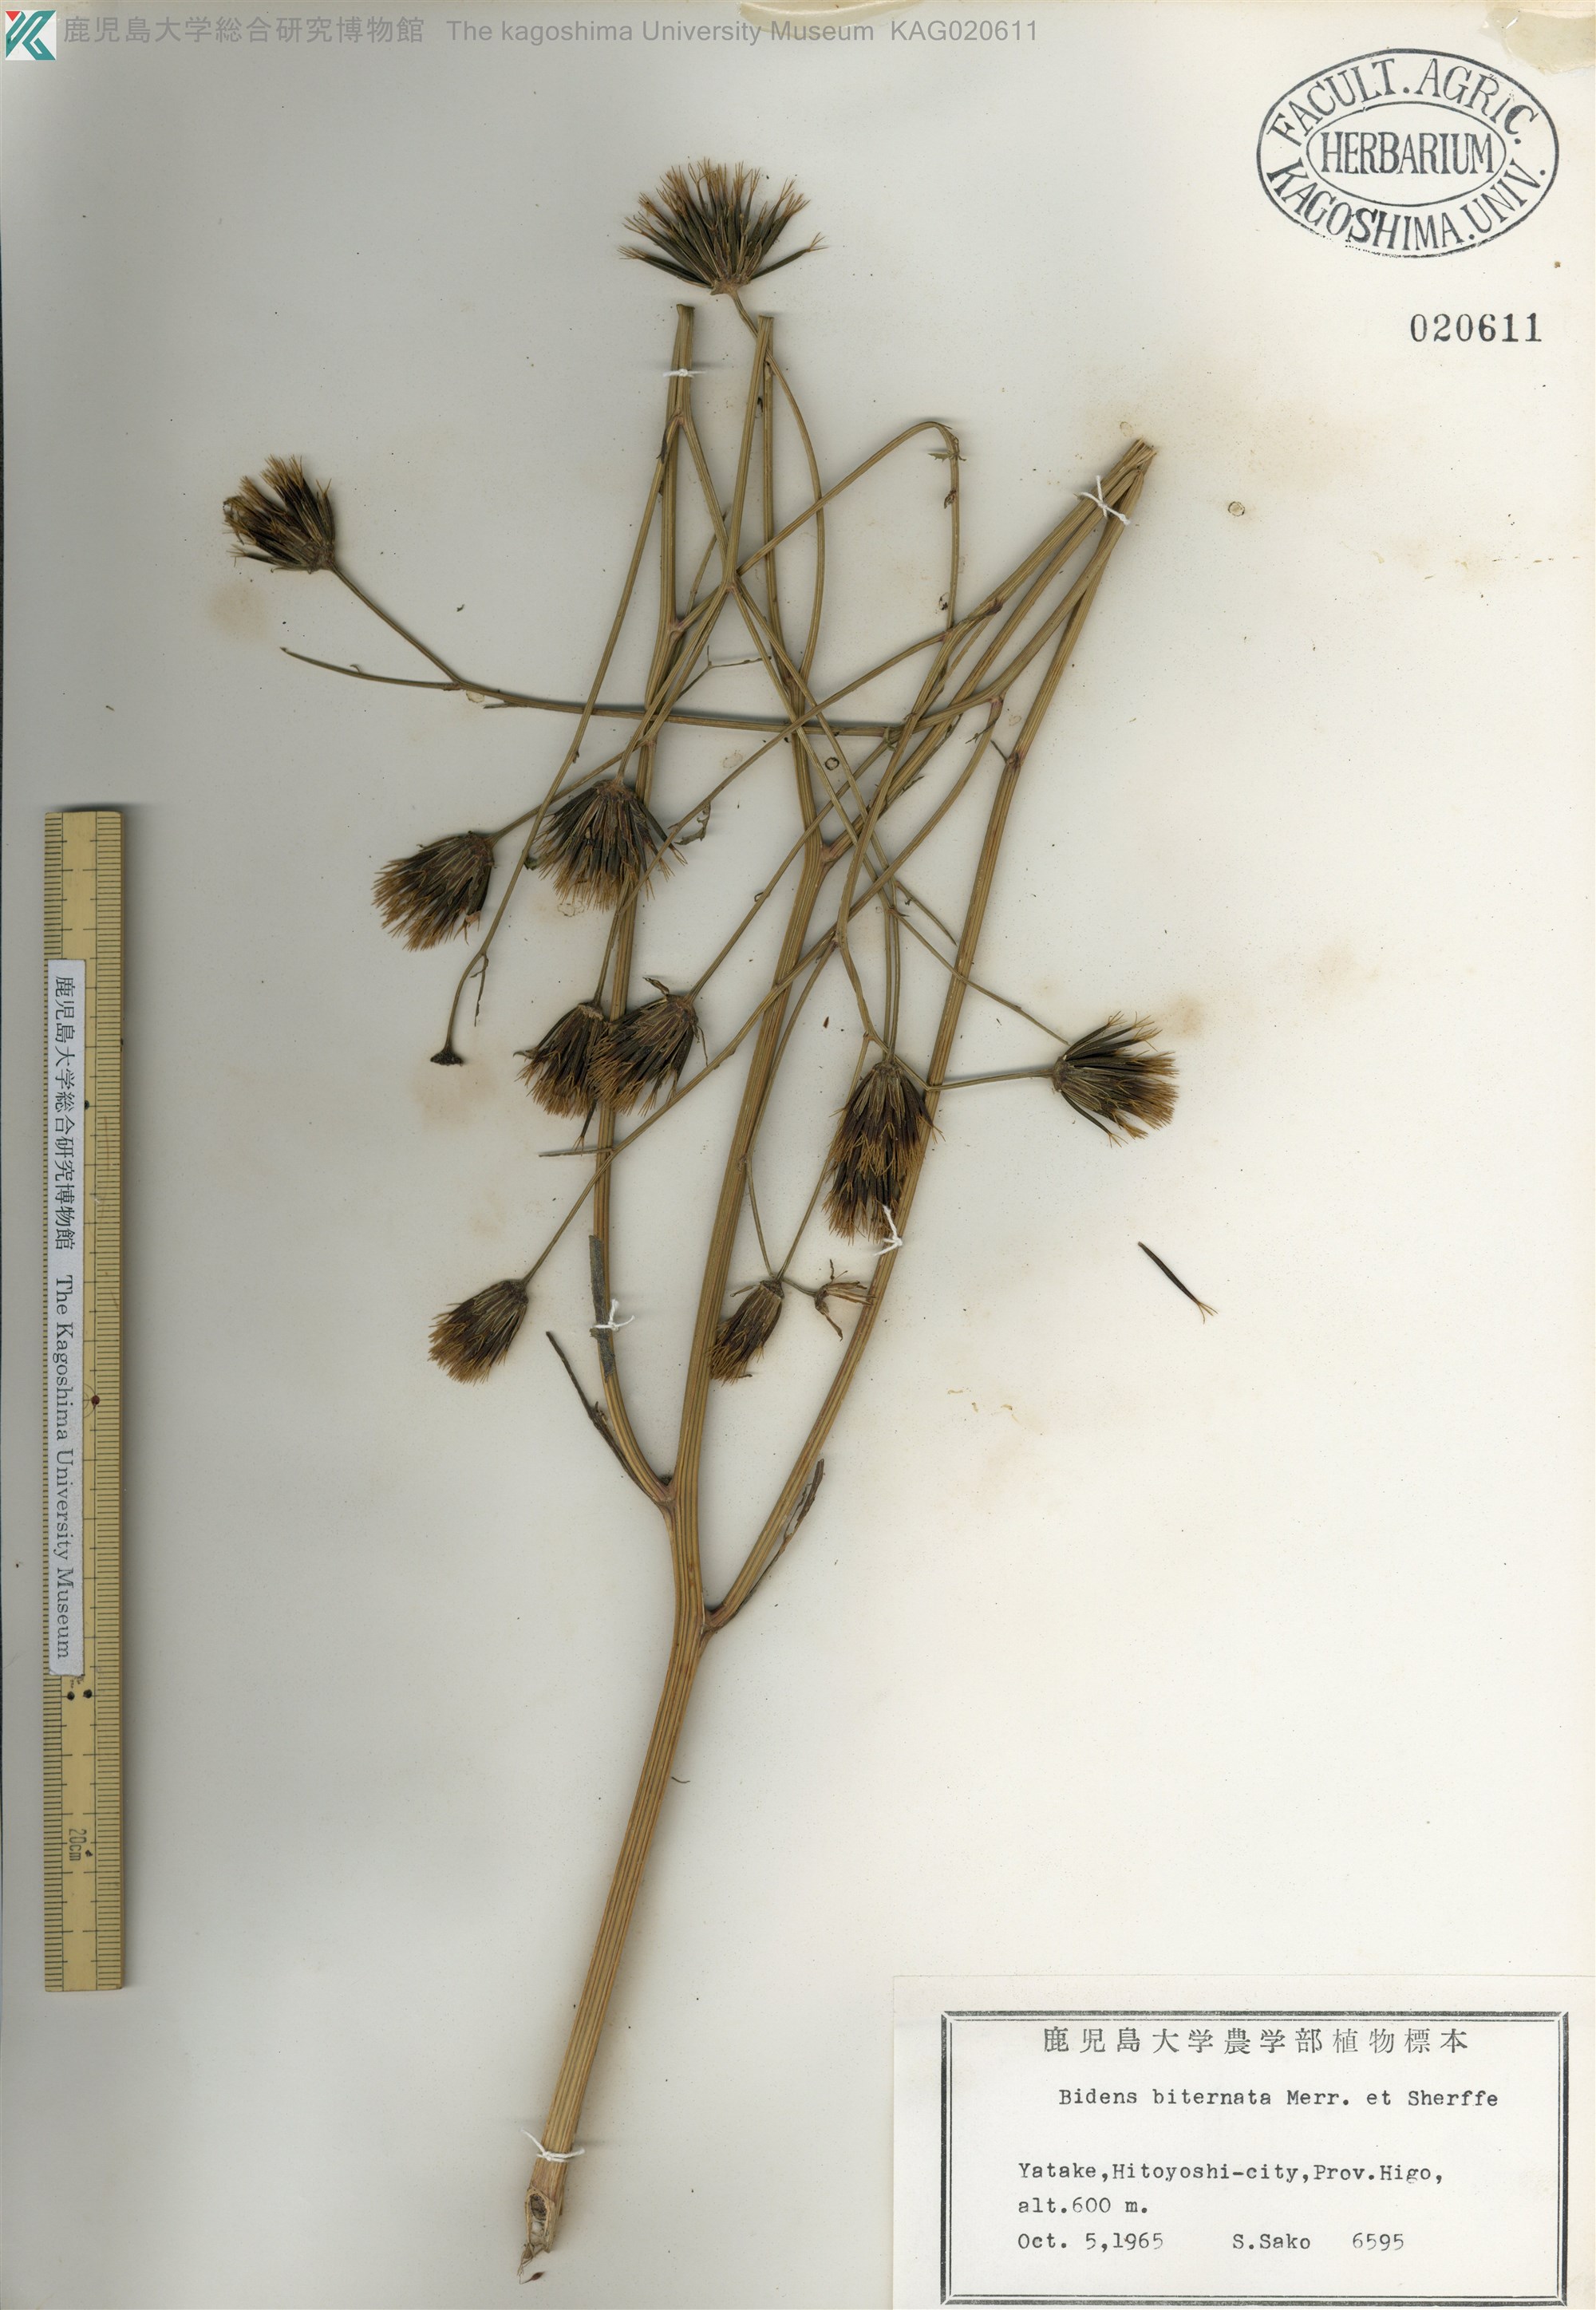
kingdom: Plantae
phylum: Tracheophyta
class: Magnoliopsida
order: Asterales
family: Asteraceae
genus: Bidens
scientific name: Bidens biternata
